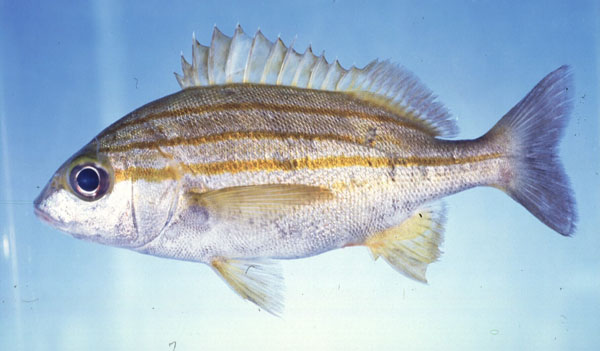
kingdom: Animalia
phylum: Chordata
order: Perciformes
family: Haemulidae
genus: Pomadasys
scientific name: Pomadasys striatus
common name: Striped grunter
